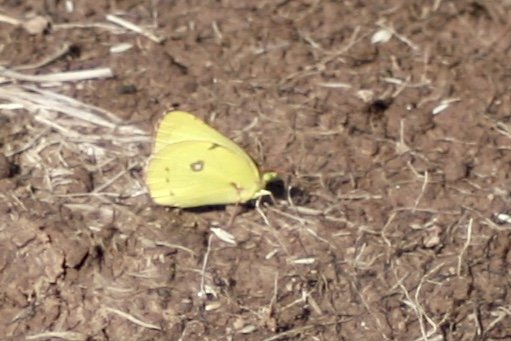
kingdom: Animalia
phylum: Arthropoda
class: Insecta
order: Lepidoptera
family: Pieridae
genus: Colias
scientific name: Colias philodice
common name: Clouded Sulphur
